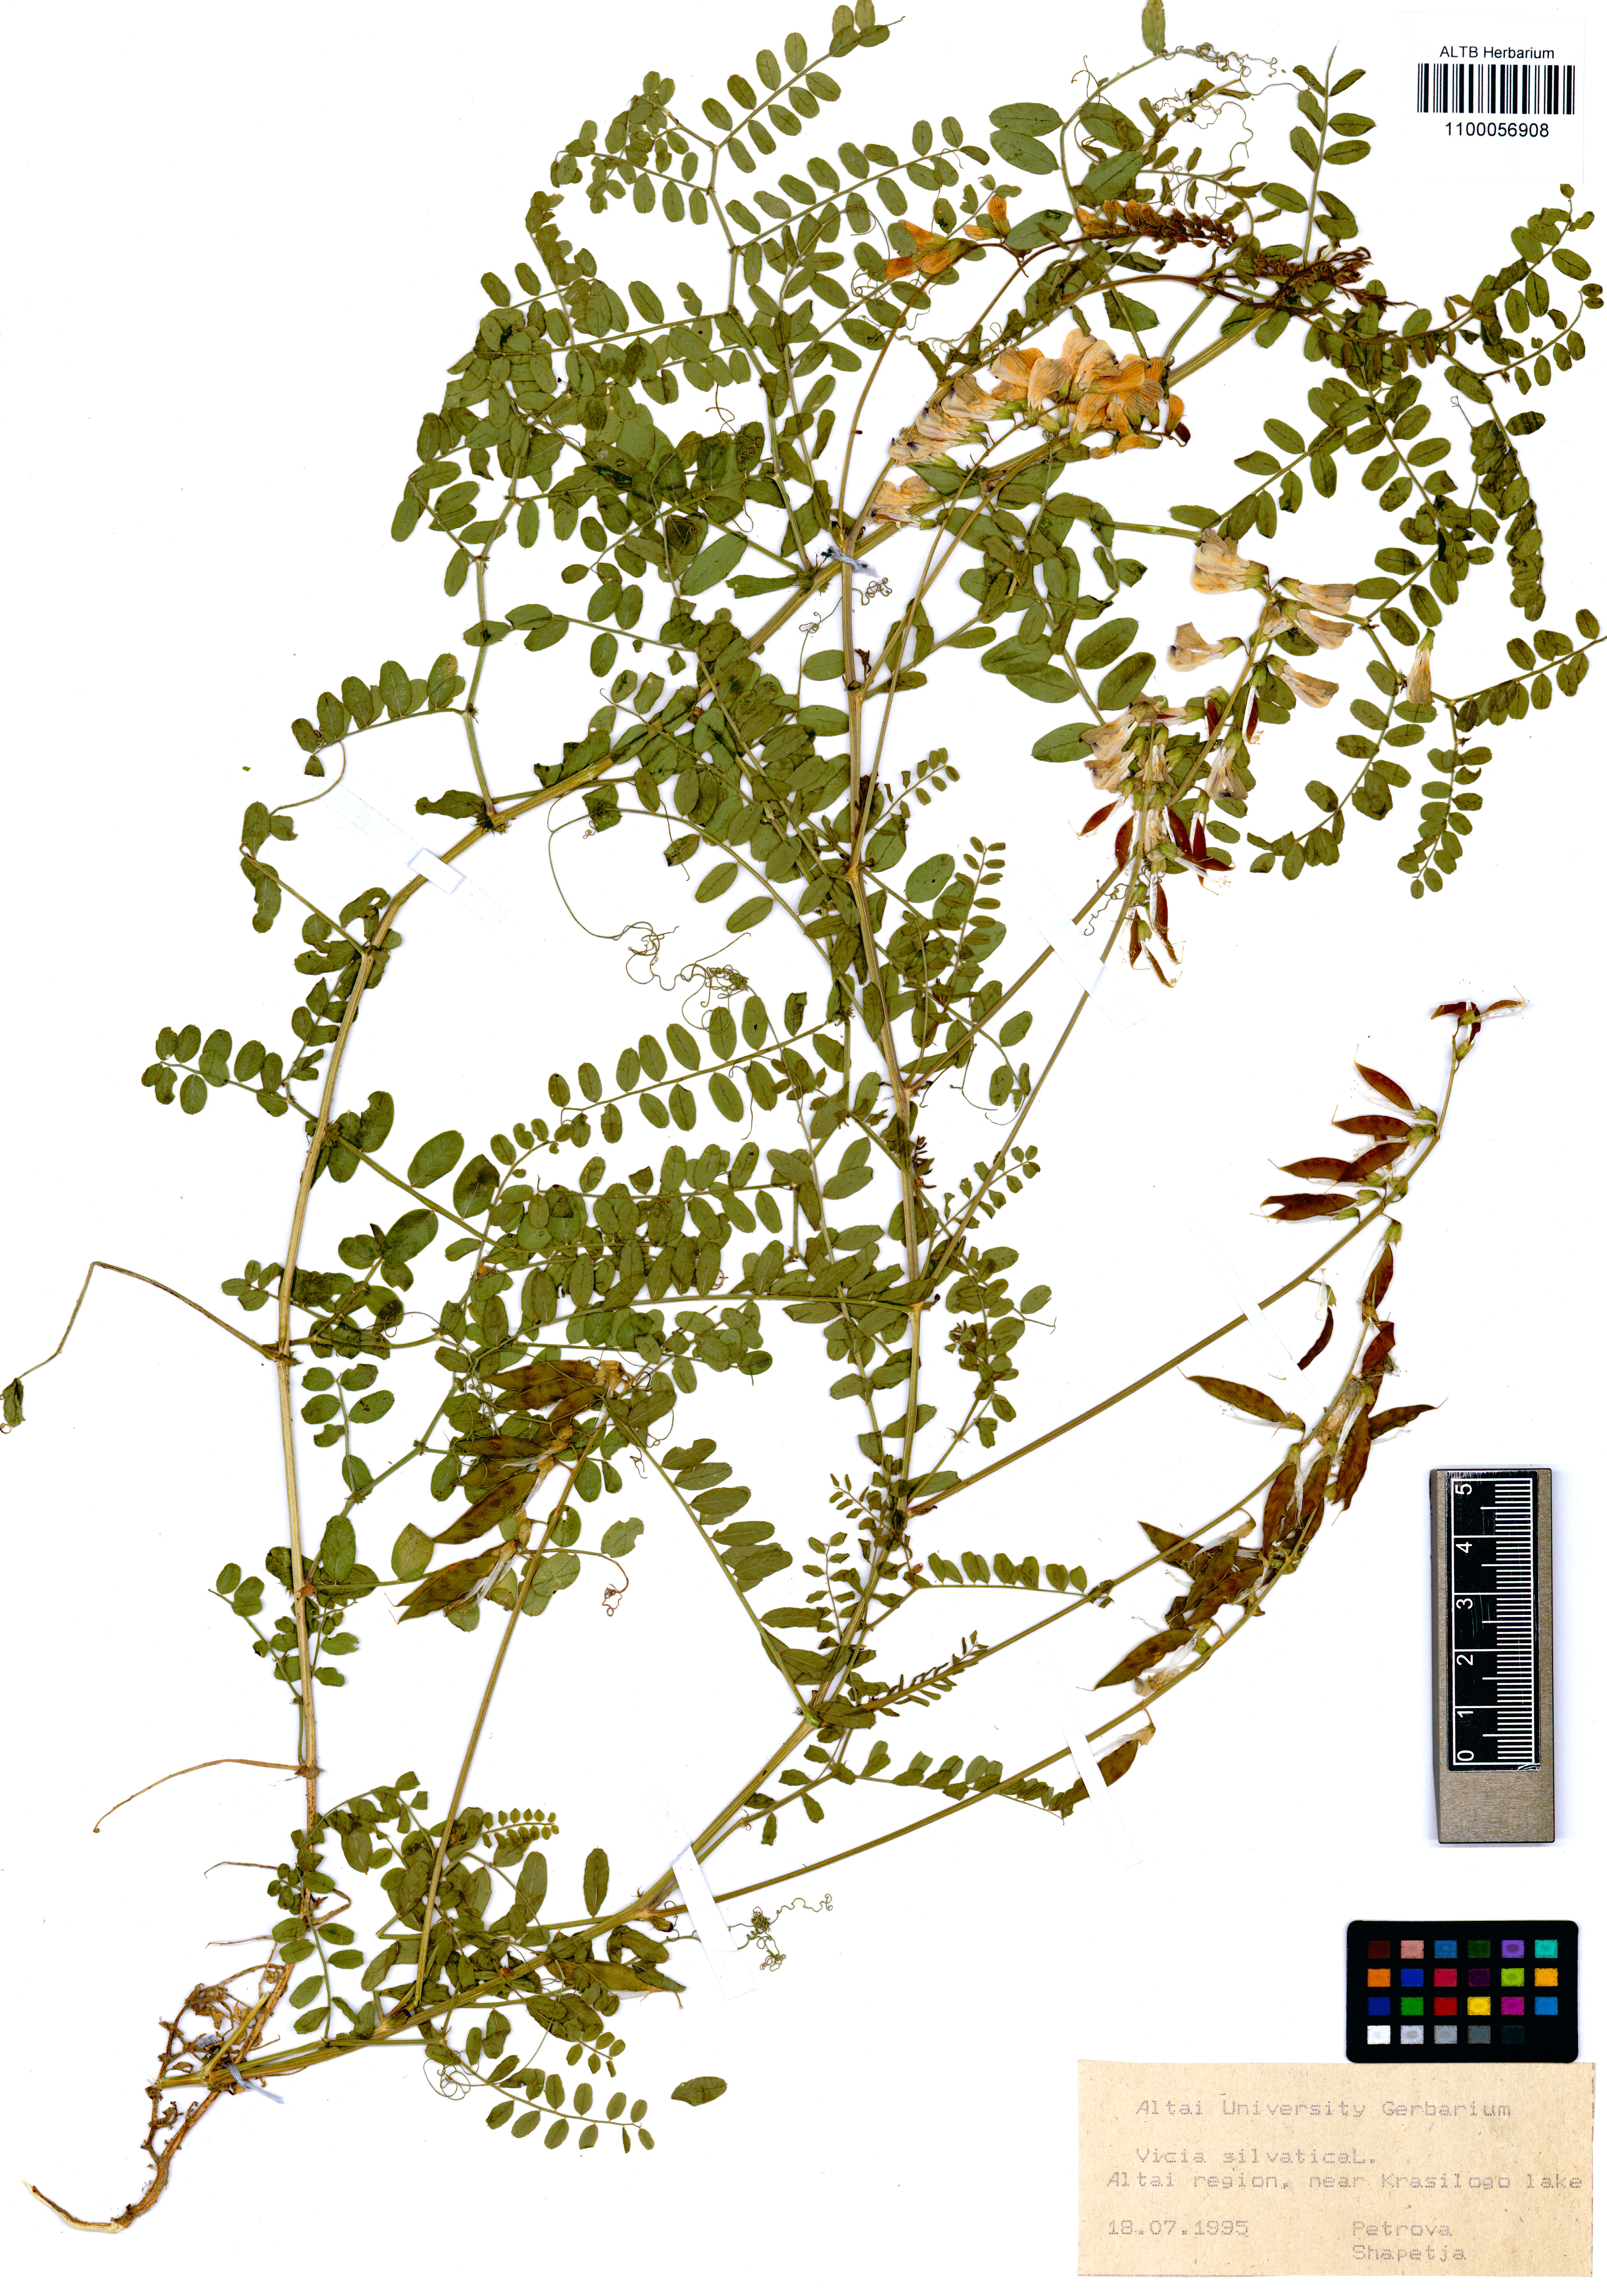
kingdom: Plantae
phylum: Tracheophyta
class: Magnoliopsida
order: Fabales
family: Fabaceae
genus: Vicia
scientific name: Vicia sylvatica
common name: Wood vetch
